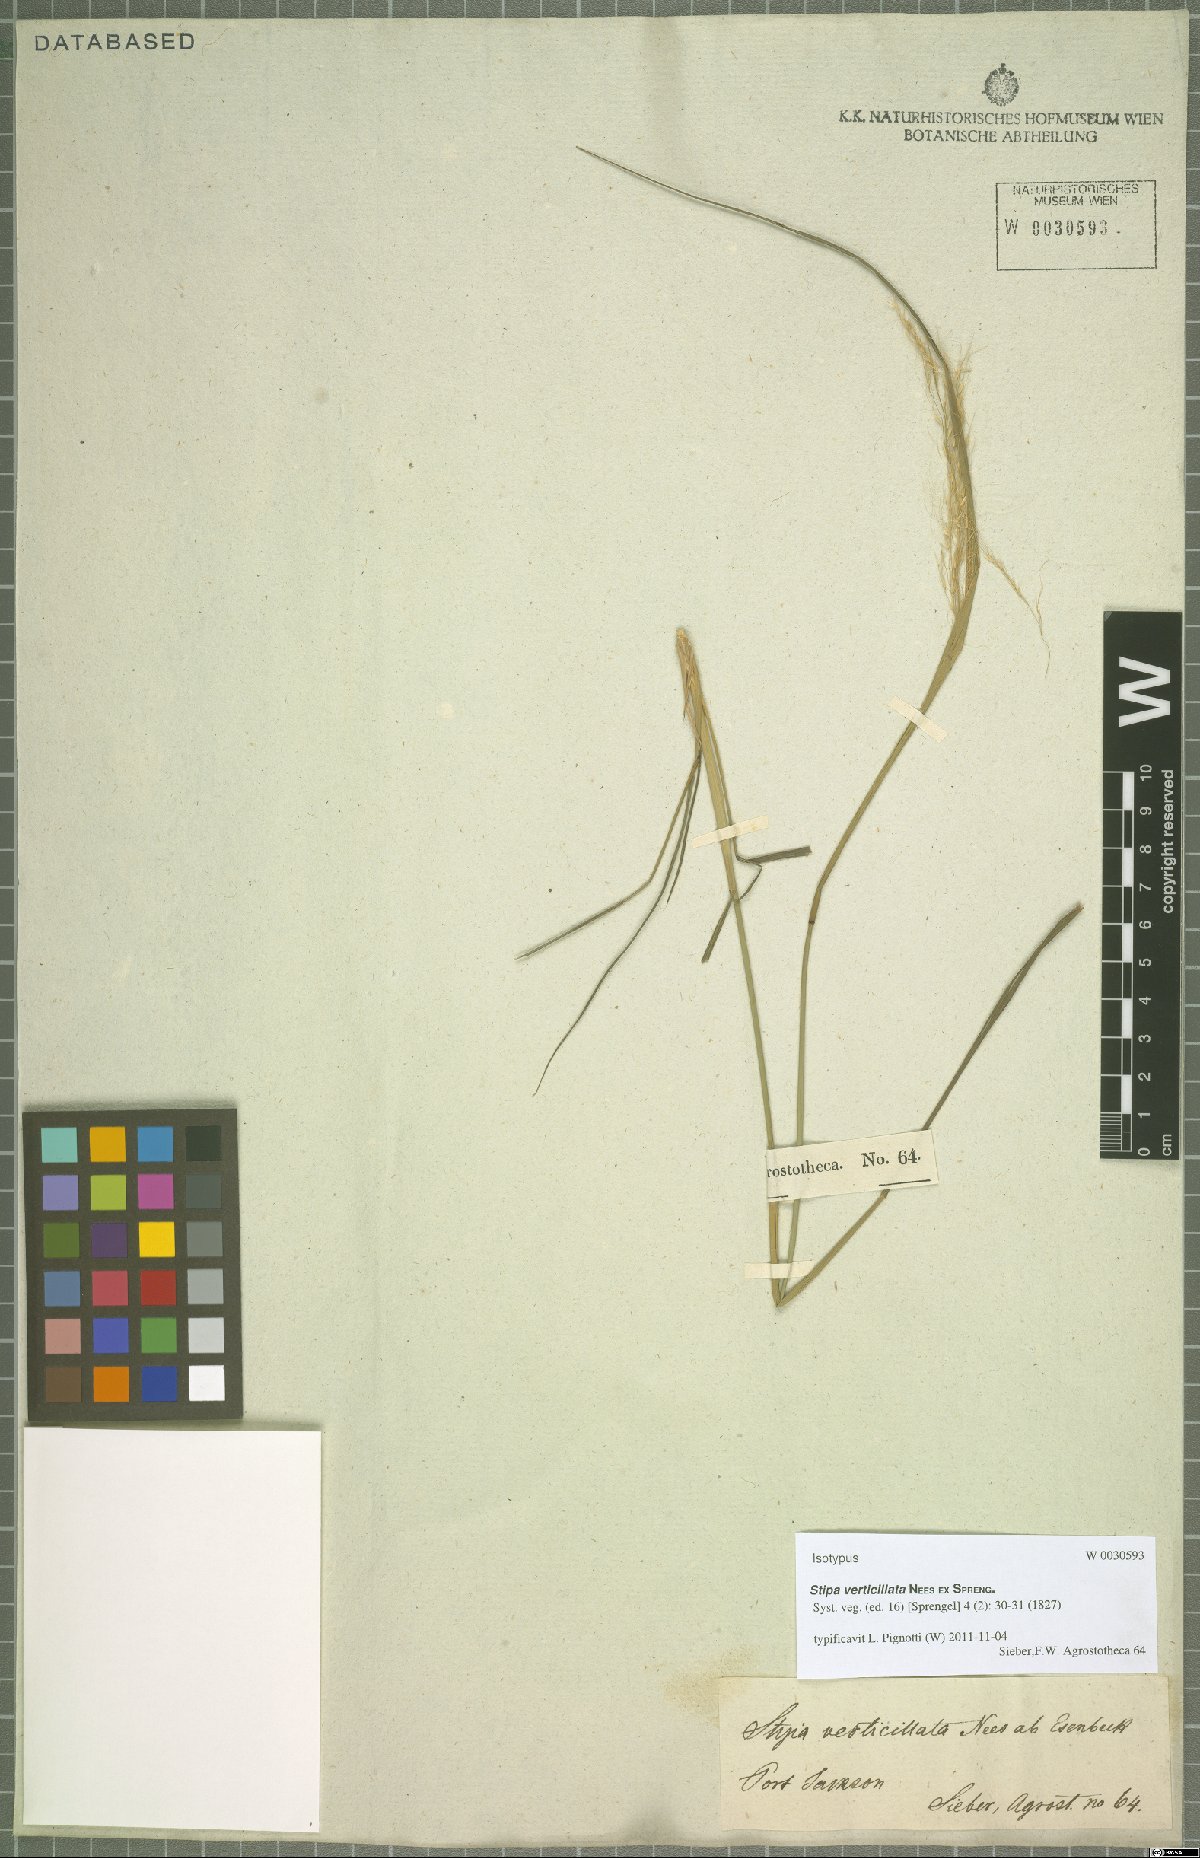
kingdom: Plantae
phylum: Tracheophyta
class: Liliopsida
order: Poales
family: Poaceae
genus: Austrostipa
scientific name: Austrostipa verticillata
